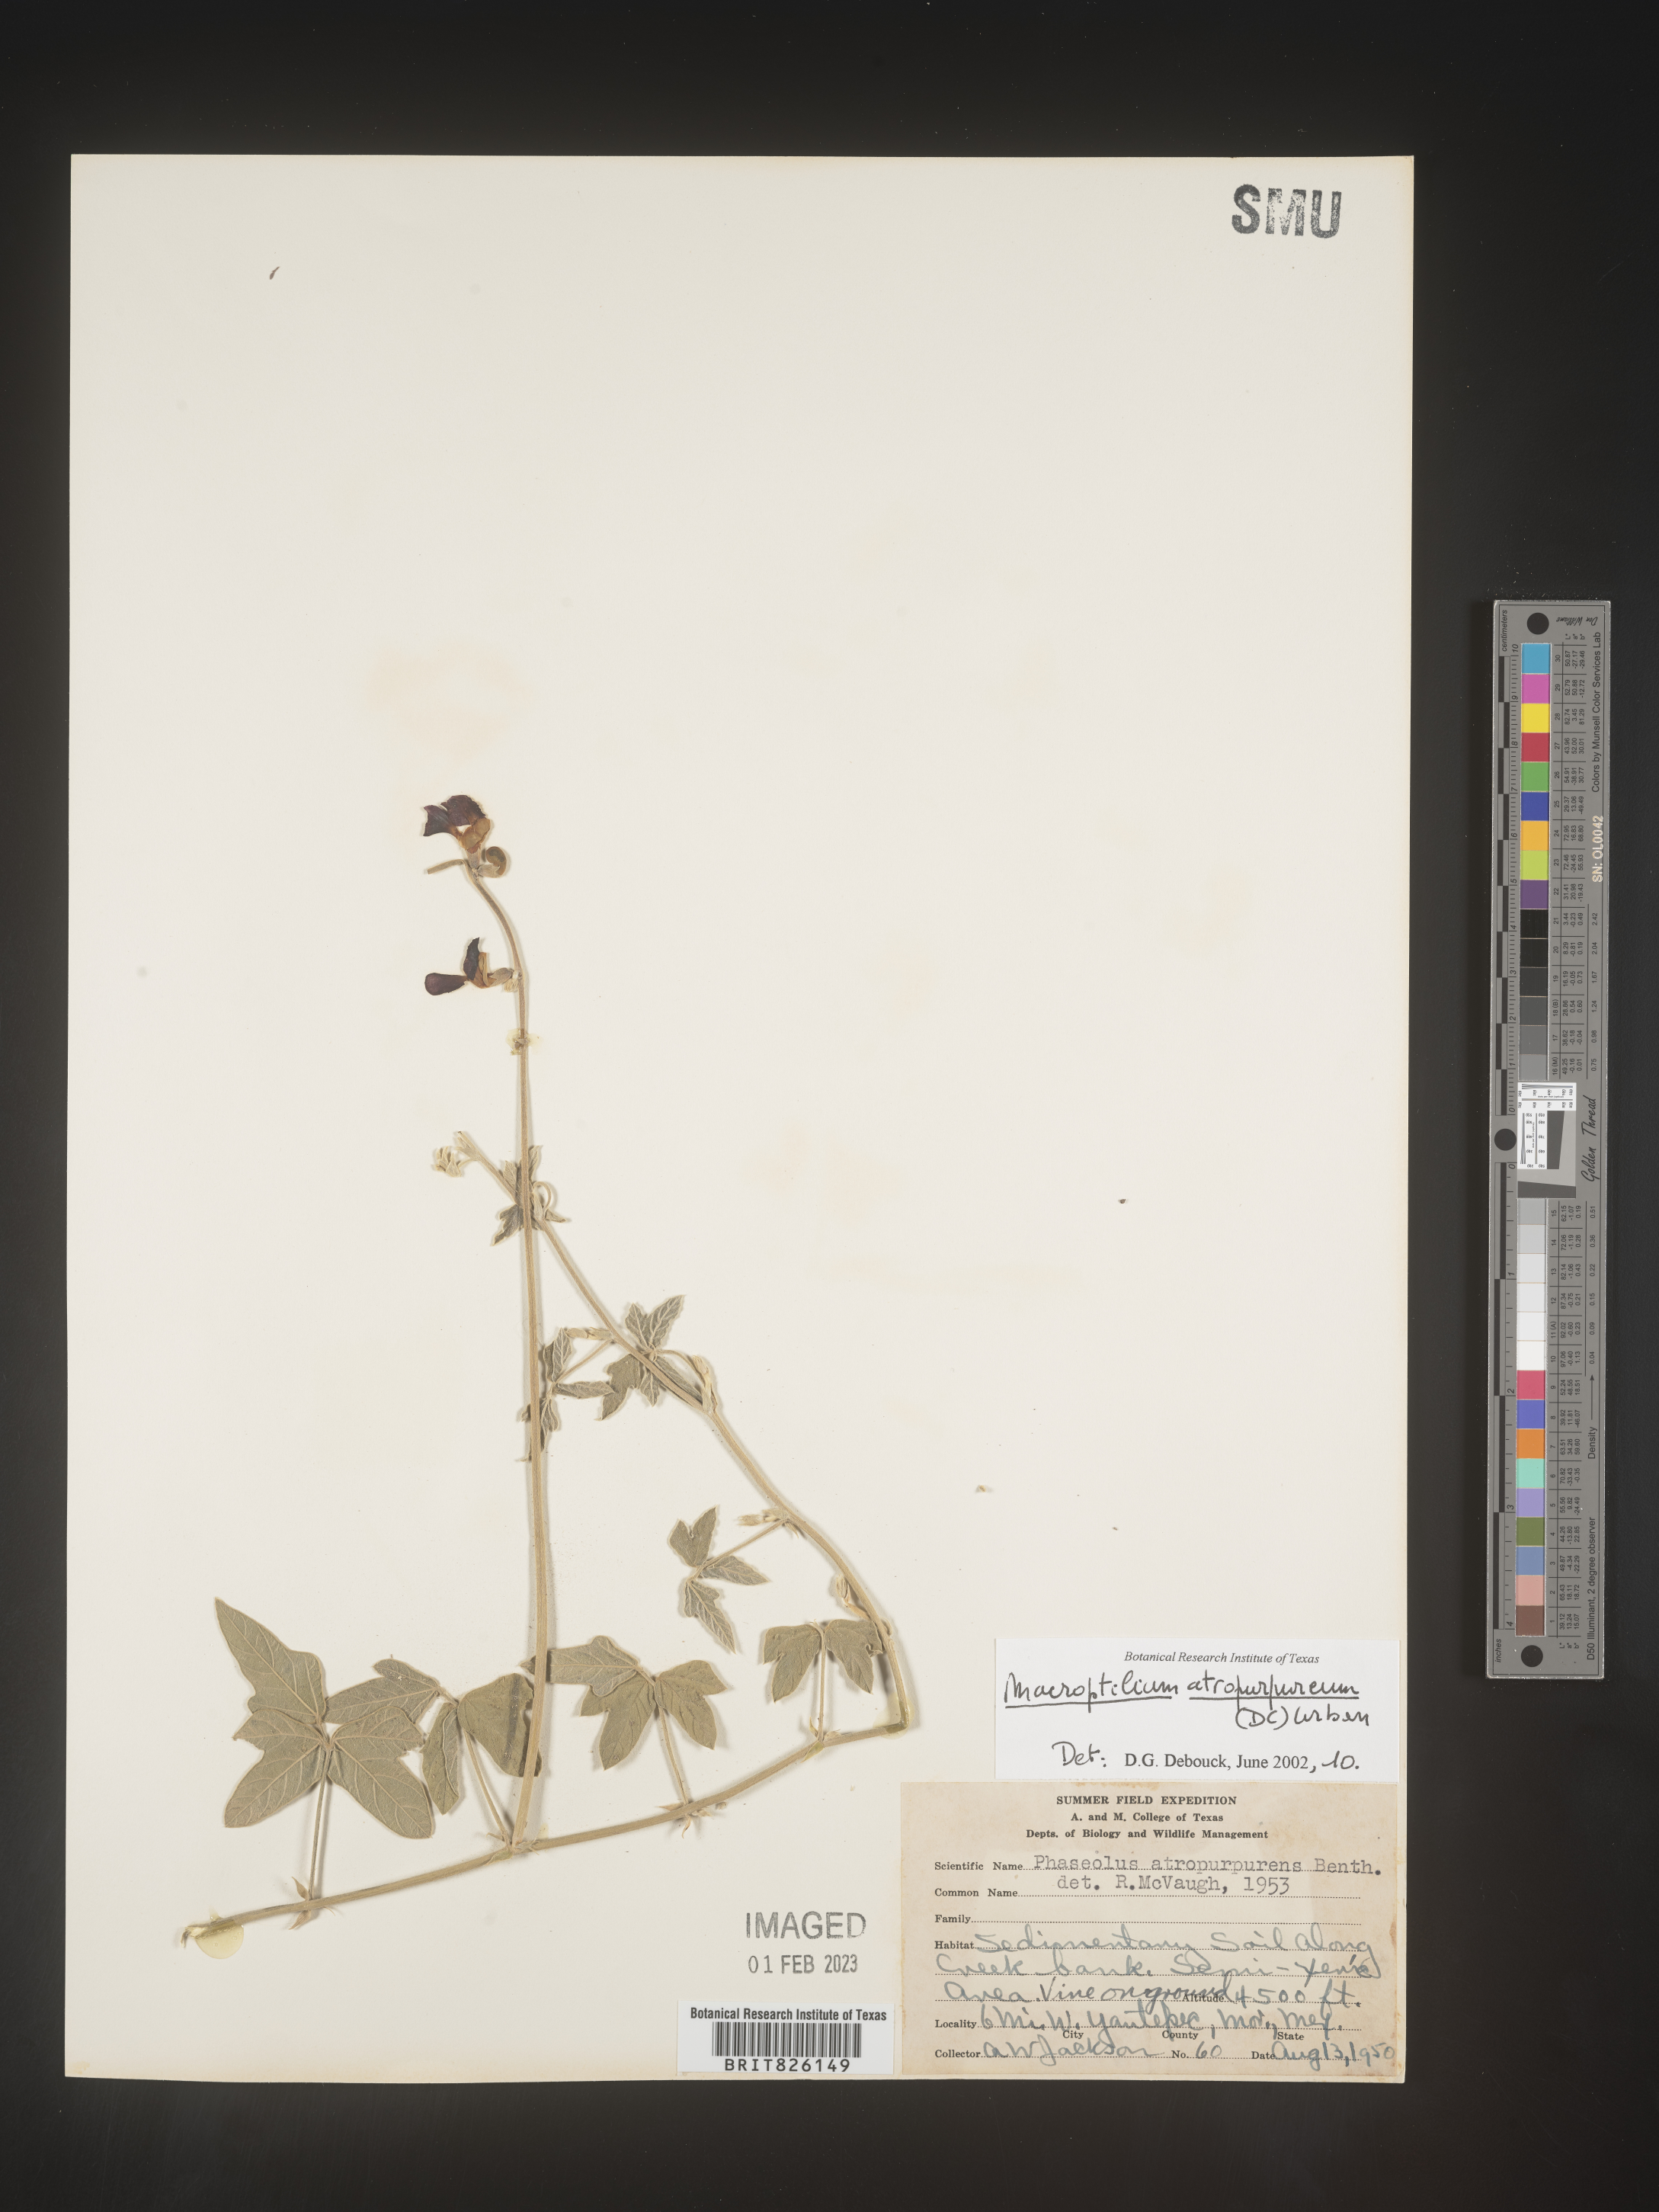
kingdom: Plantae
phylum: Tracheophyta
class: Magnoliopsida
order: Fabales
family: Fabaceae
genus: Macroptilium
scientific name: Macroptilium
